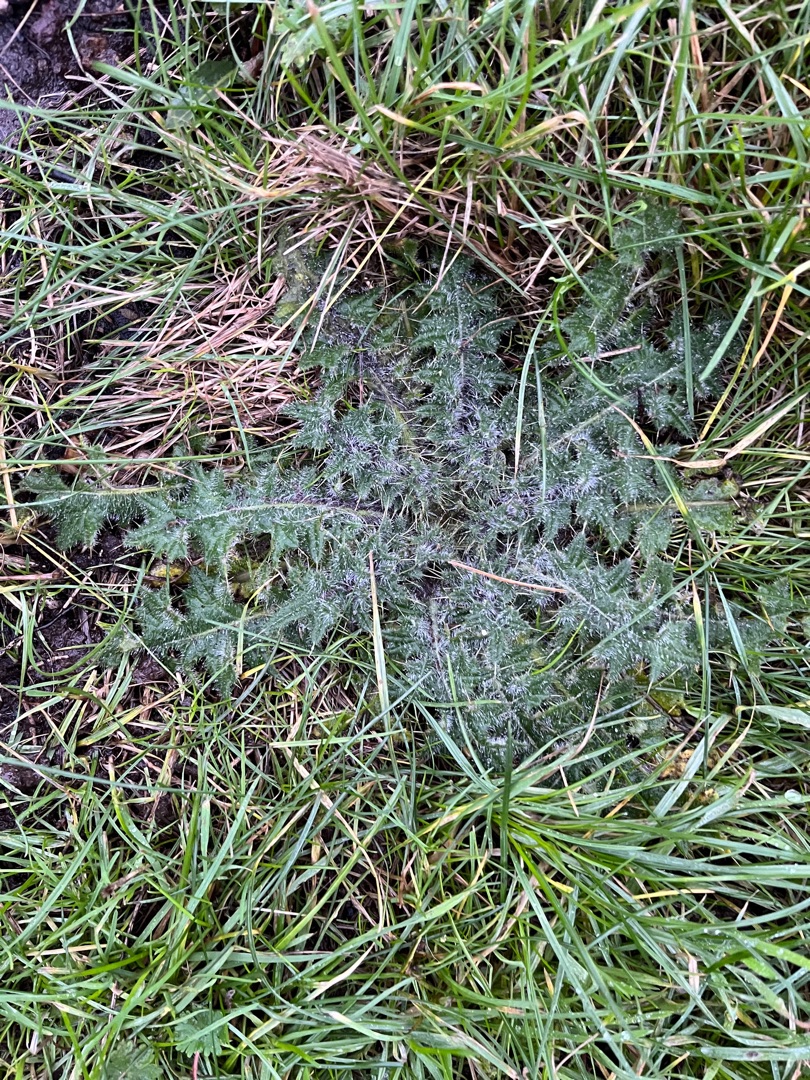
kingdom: Plantae
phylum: Tracheophyta
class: Magnoliopsida
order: Asterales
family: Asteraceae
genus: Cirsium
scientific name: Cirsium vulgare
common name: Horse-tidsel
